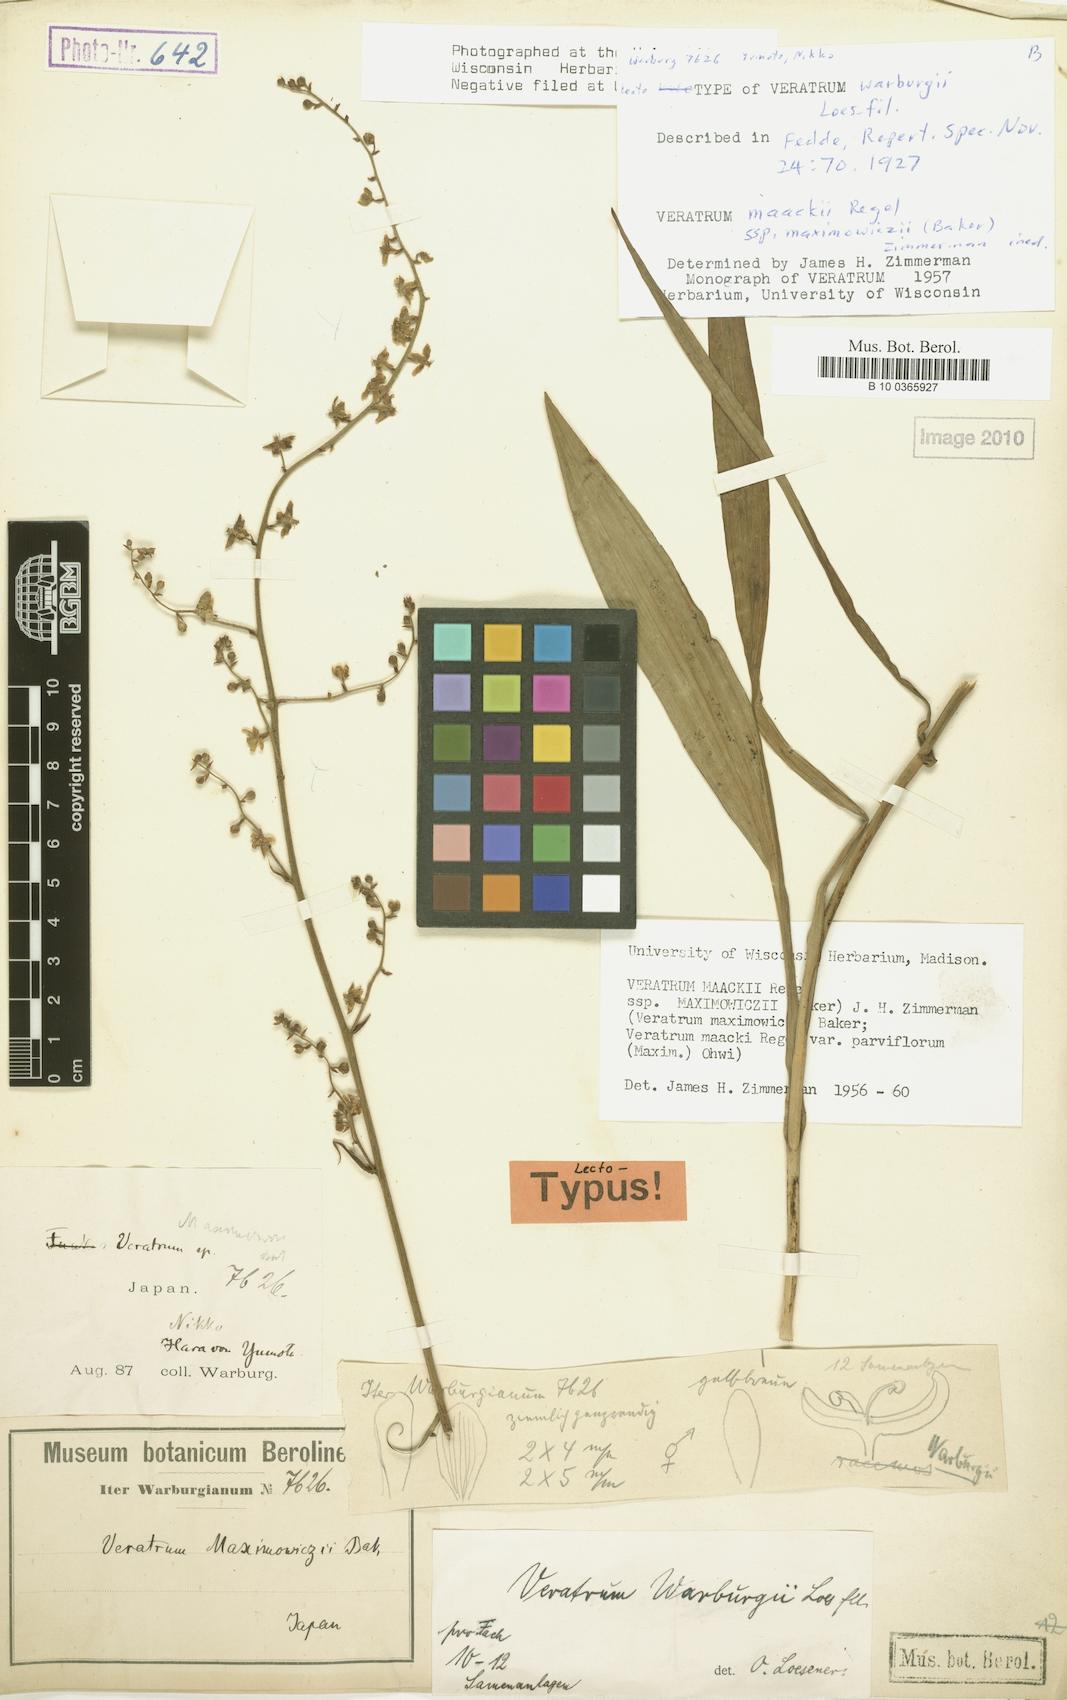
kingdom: Plantae
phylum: Tracheophyta
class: Liliopsida
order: Liliales
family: Melanthiaceae
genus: Veratrum
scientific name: Veratrum maackii
